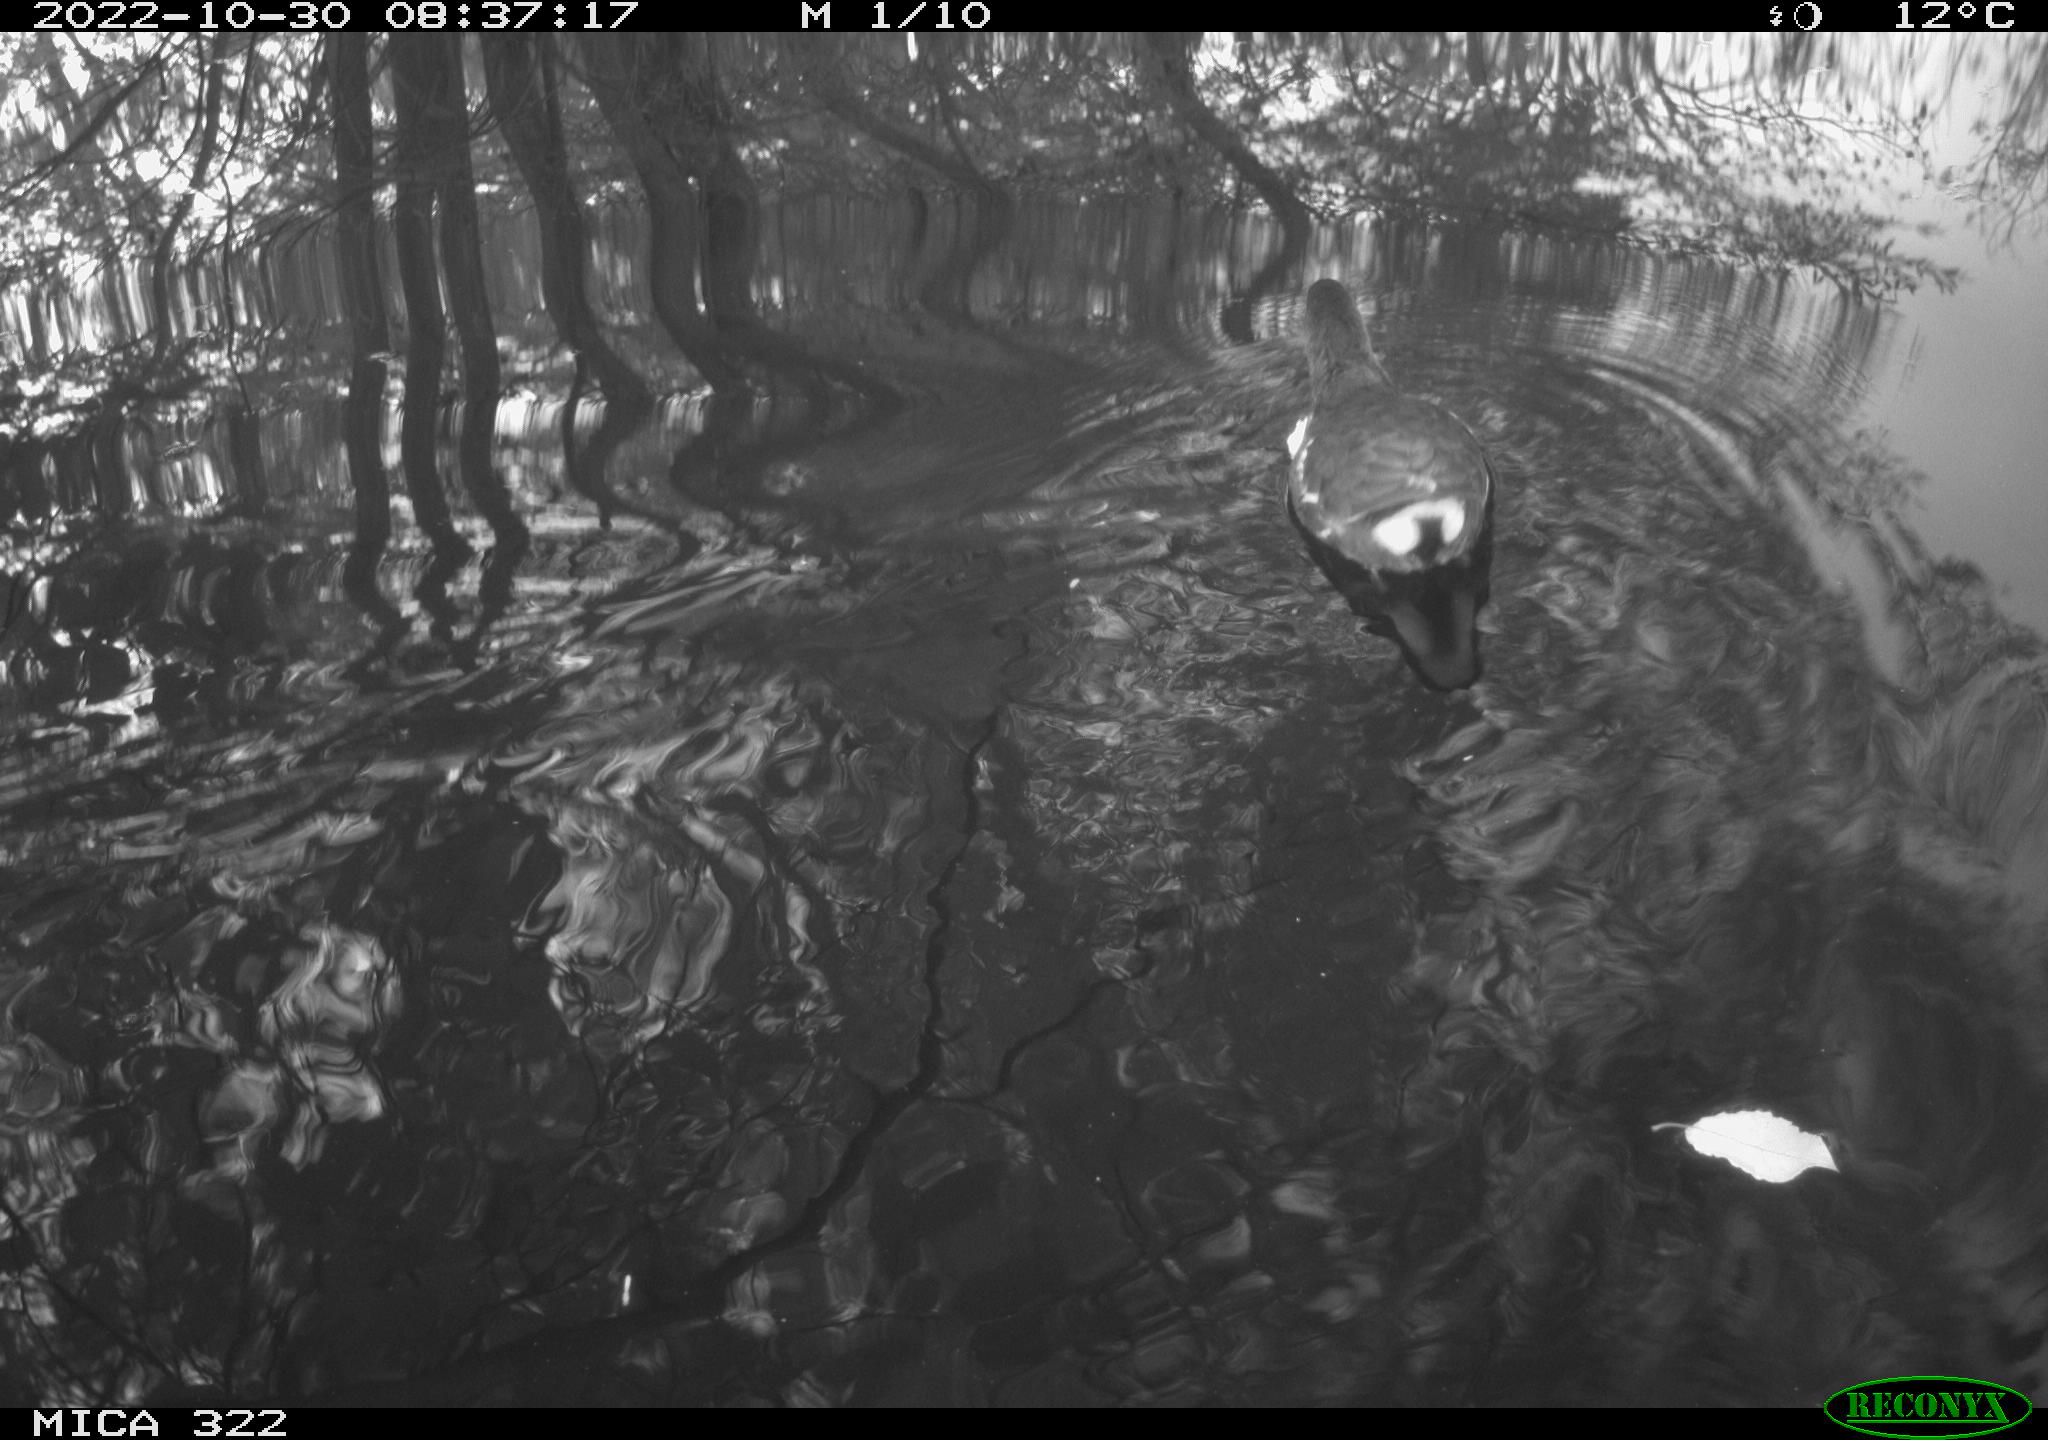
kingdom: Animalia
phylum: Chordata
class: Aves
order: Gruiformes
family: Rallidae
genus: Gallinula
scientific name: Gallinula chloropus
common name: Common moorhen
